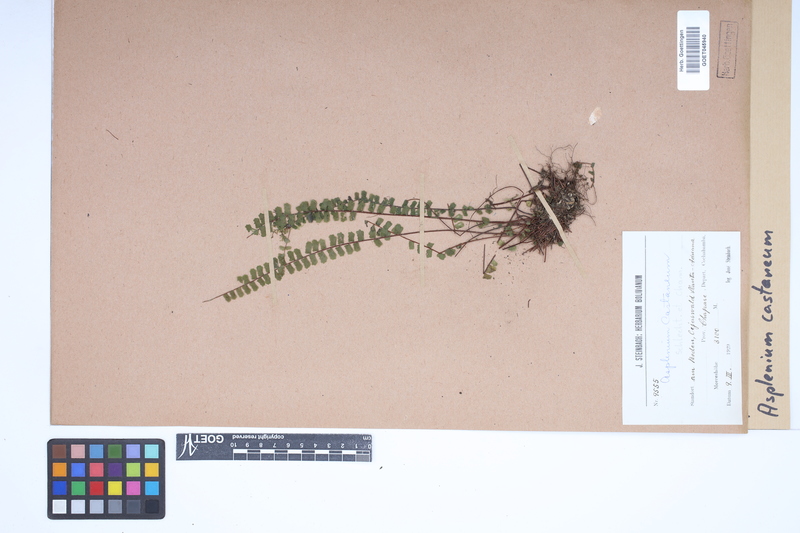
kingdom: Plantae
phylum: Tracheophyta
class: Polypodiopsida
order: Polypodiales
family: Aspleniaceae
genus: Asplenium
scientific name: Asplenium castaneum
